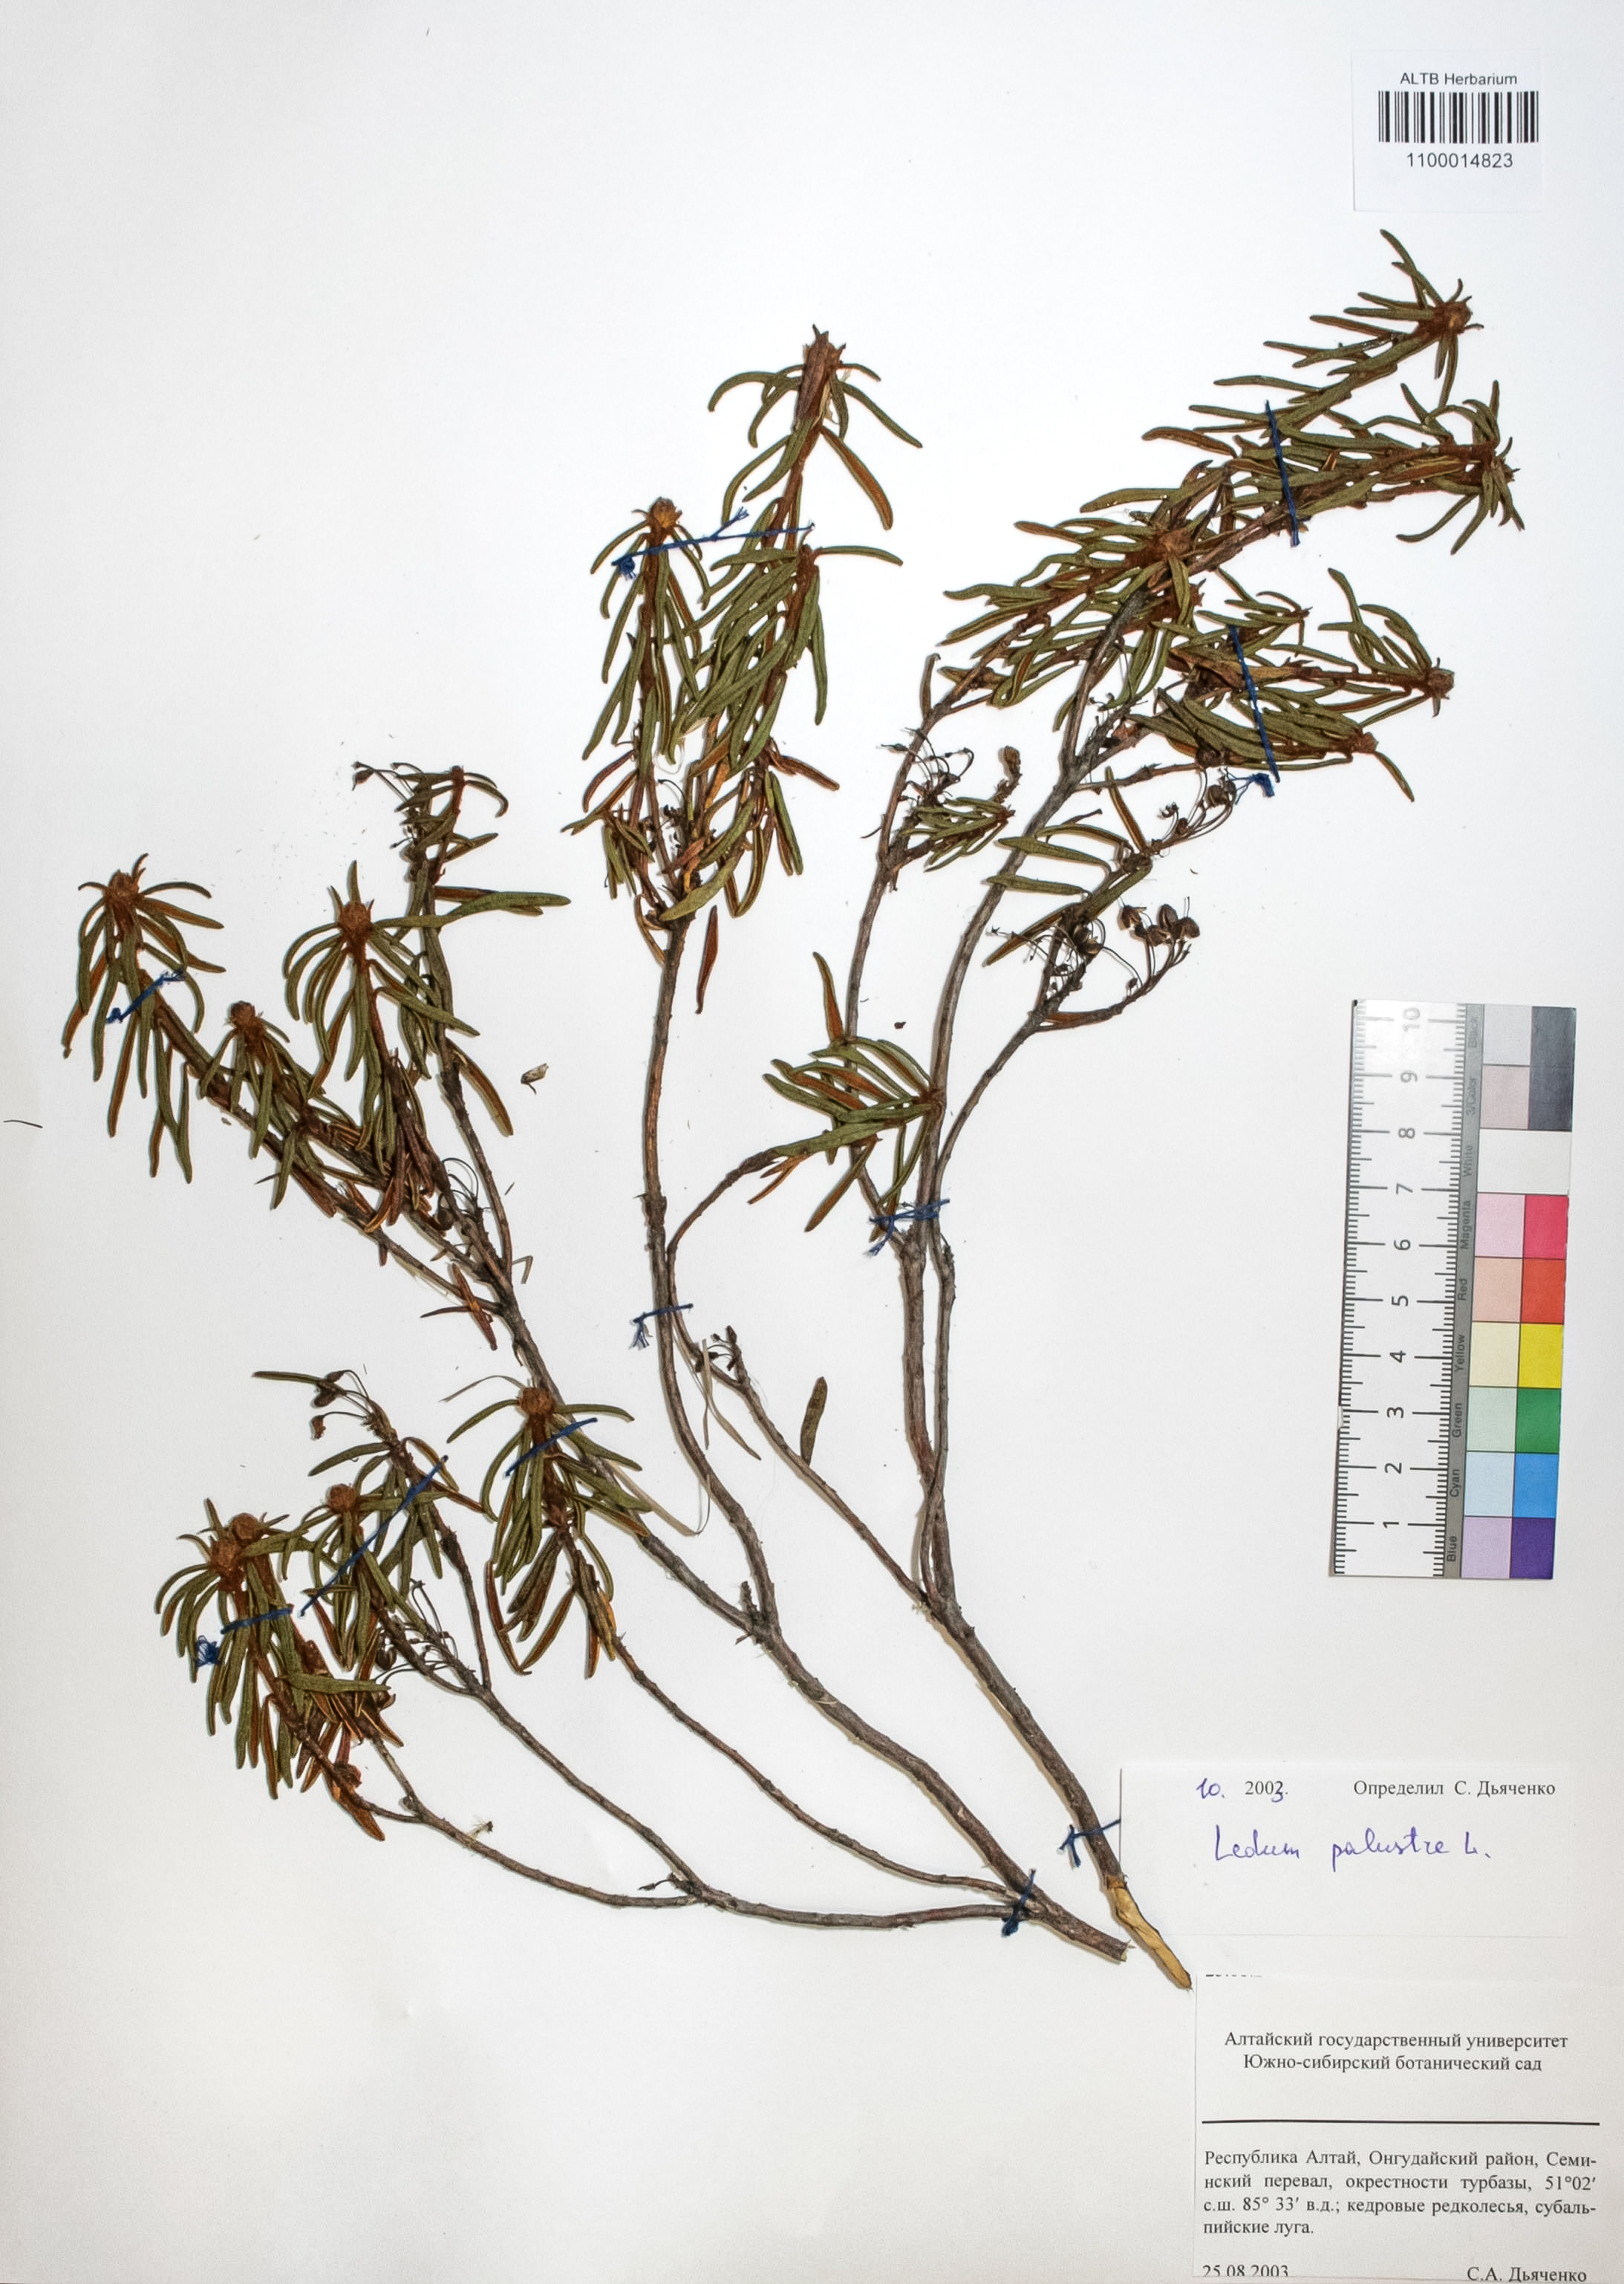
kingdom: Plantae
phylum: Tracheophyta
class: Magnoliopsida
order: Ericales
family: Ericaceae
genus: Rhododendron
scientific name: Rhododendron tomentosum
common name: Marsh labrador tea
